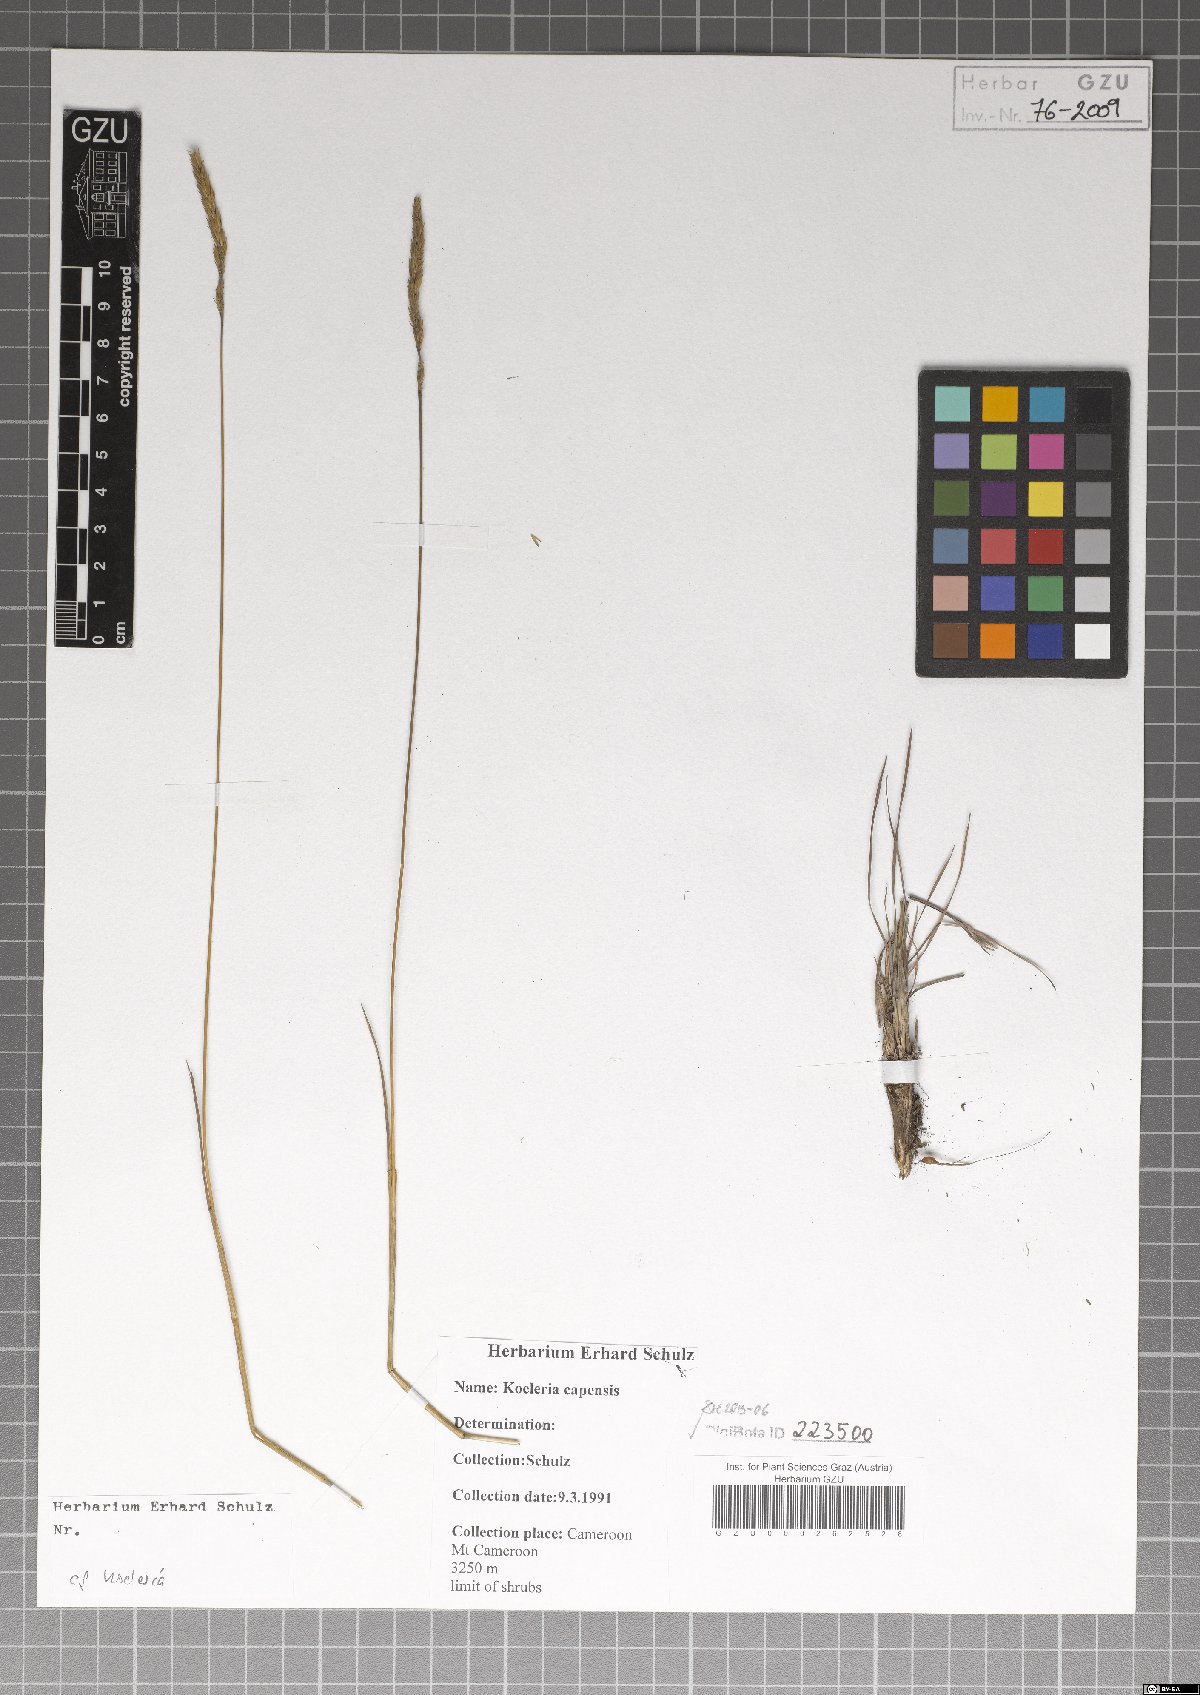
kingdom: Plantae
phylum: Tracheophyta
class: Liliopsida
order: Poales
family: Poaceae
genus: Koeleria
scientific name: Koeleria capensis
